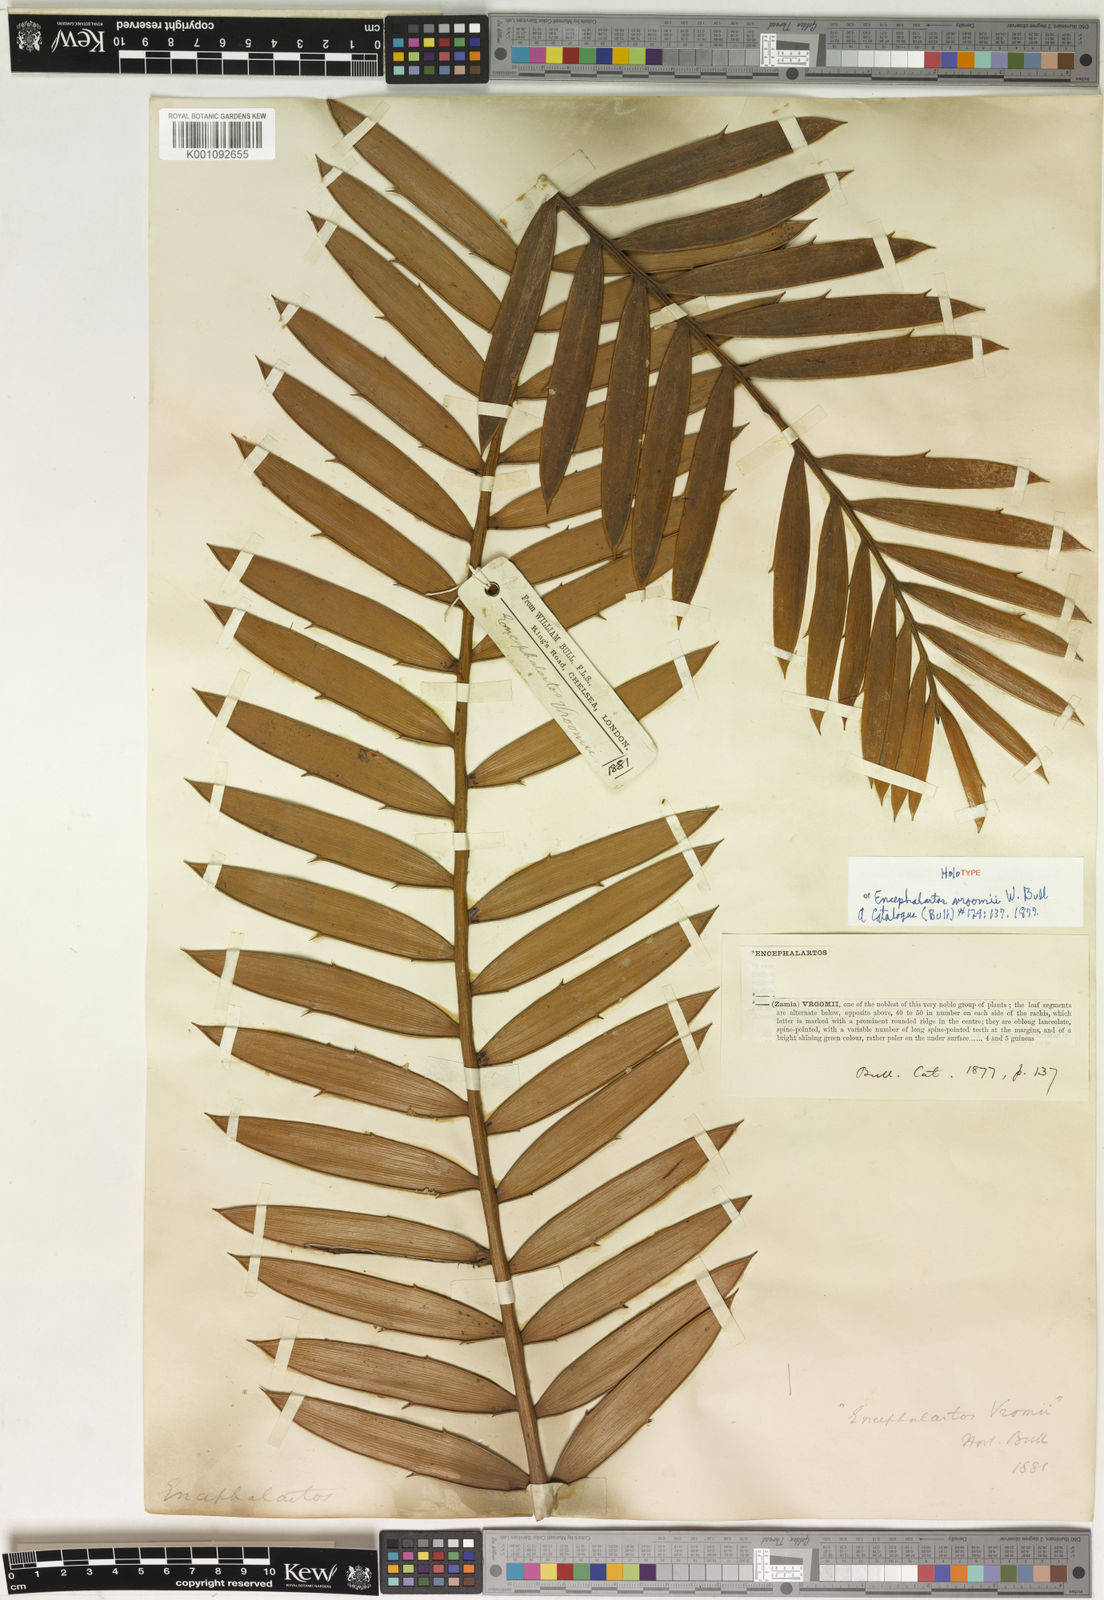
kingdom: Plantae
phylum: Tracheophyta
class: Cycadopsida
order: Cycadales
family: Zamiaceae
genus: Encephalartos
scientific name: Encephalartos
